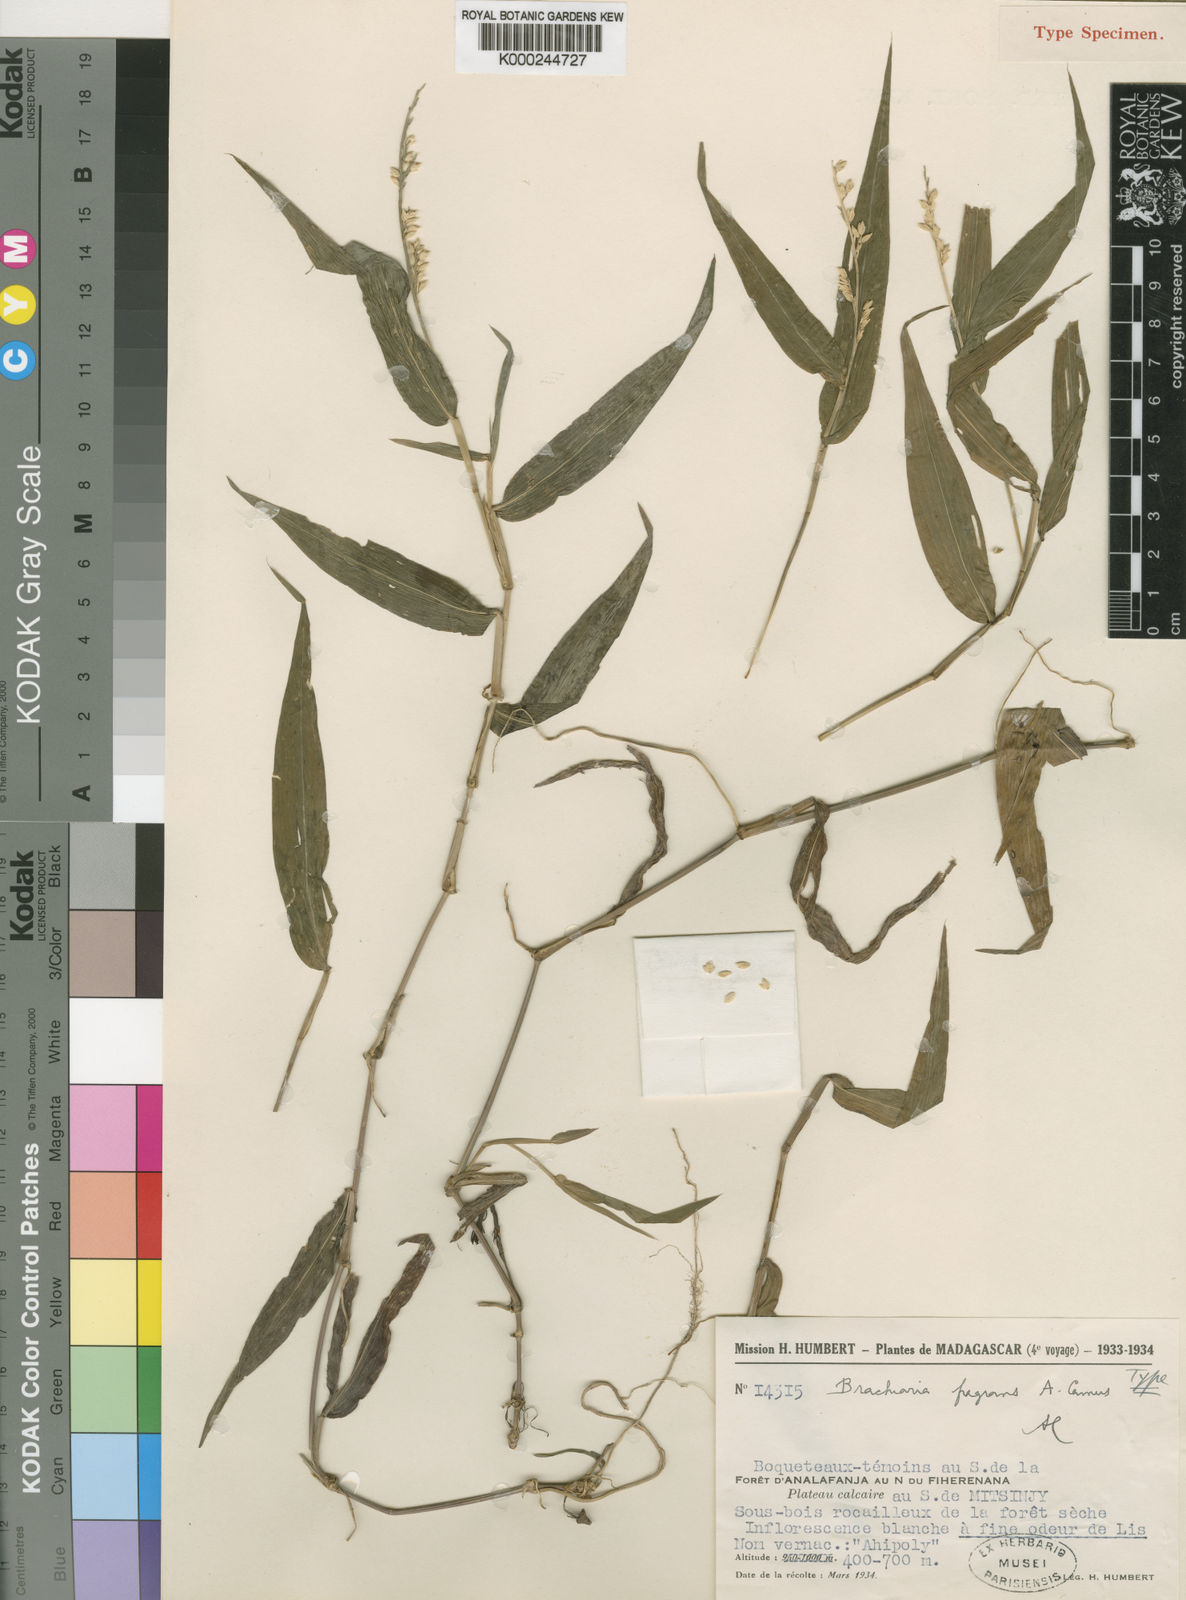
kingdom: Plantae
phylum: Tracheophyta
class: Liliopsida
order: Poales
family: Poaceae
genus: Urochloa
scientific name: Urochloa Brachiaria fragrans
